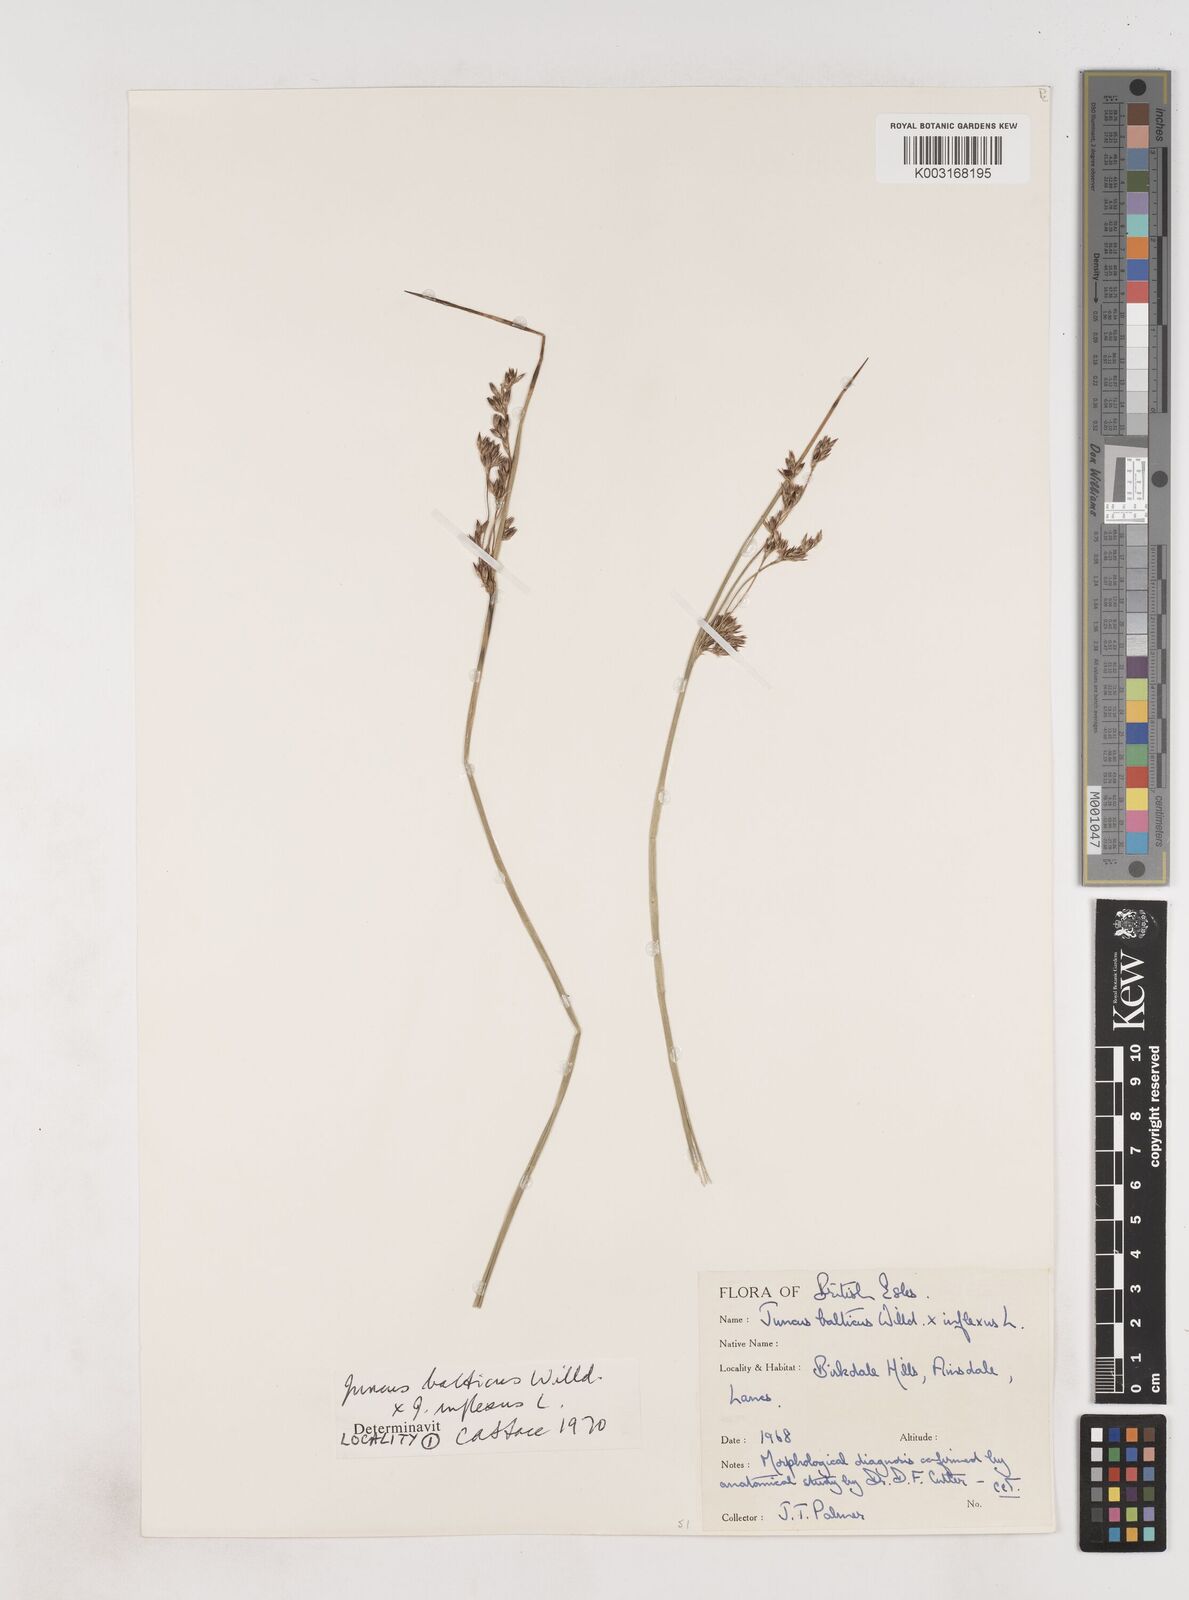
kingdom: Plantae
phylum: Tracheophyta
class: Liliopsida
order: Poales
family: Juncaceae
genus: Juncus
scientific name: Juncus balticus
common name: Baltic rush
